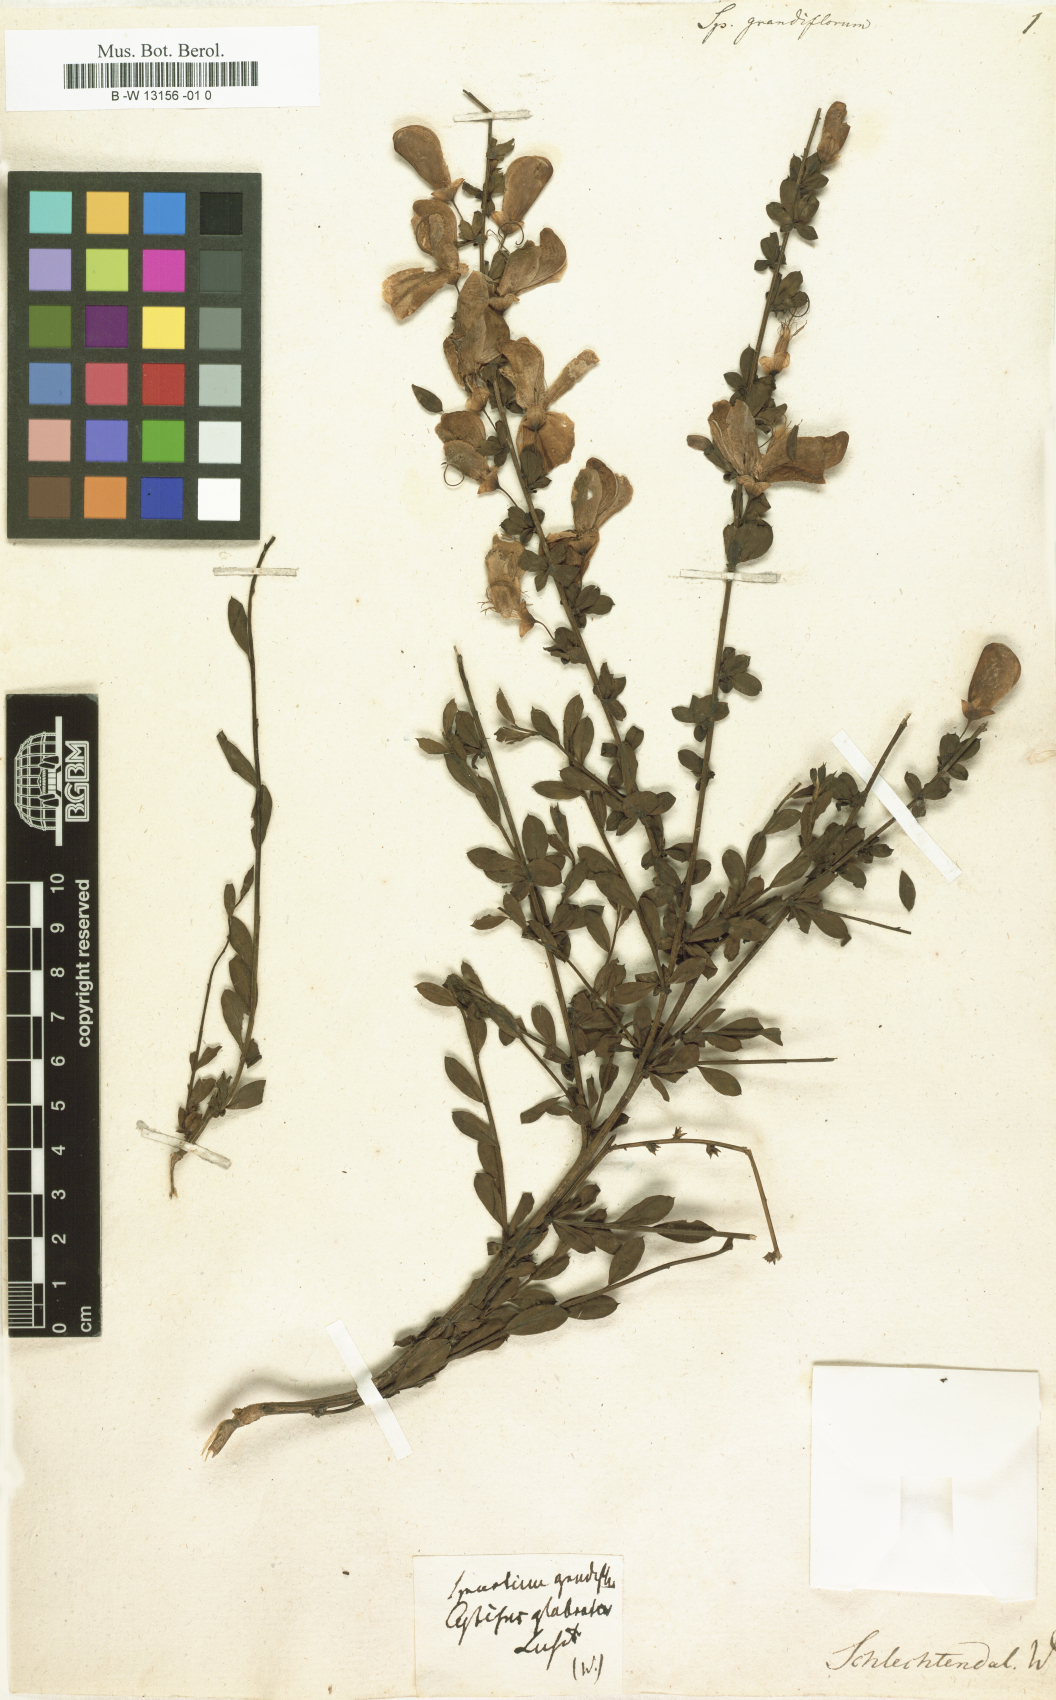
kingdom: Plantae
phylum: Tracheophyta
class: Magnoliopsida
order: Fabales
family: Fabaceae
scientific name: Fabaceae
